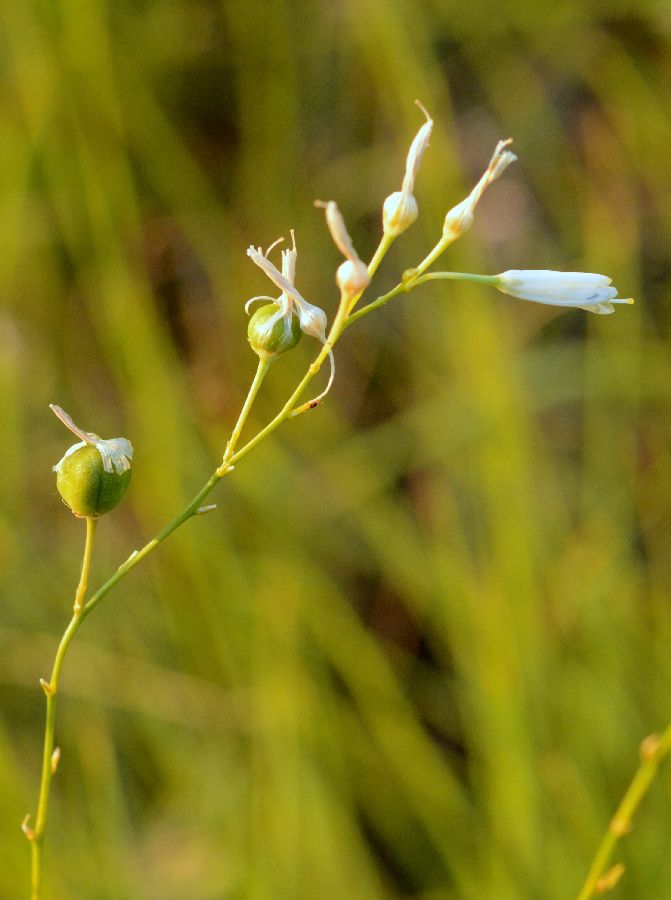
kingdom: Plantae
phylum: Tracheophyta
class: Liliopsida
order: Asparagales
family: Asparagaceae
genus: Anthericum
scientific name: Anthericum ramosum
